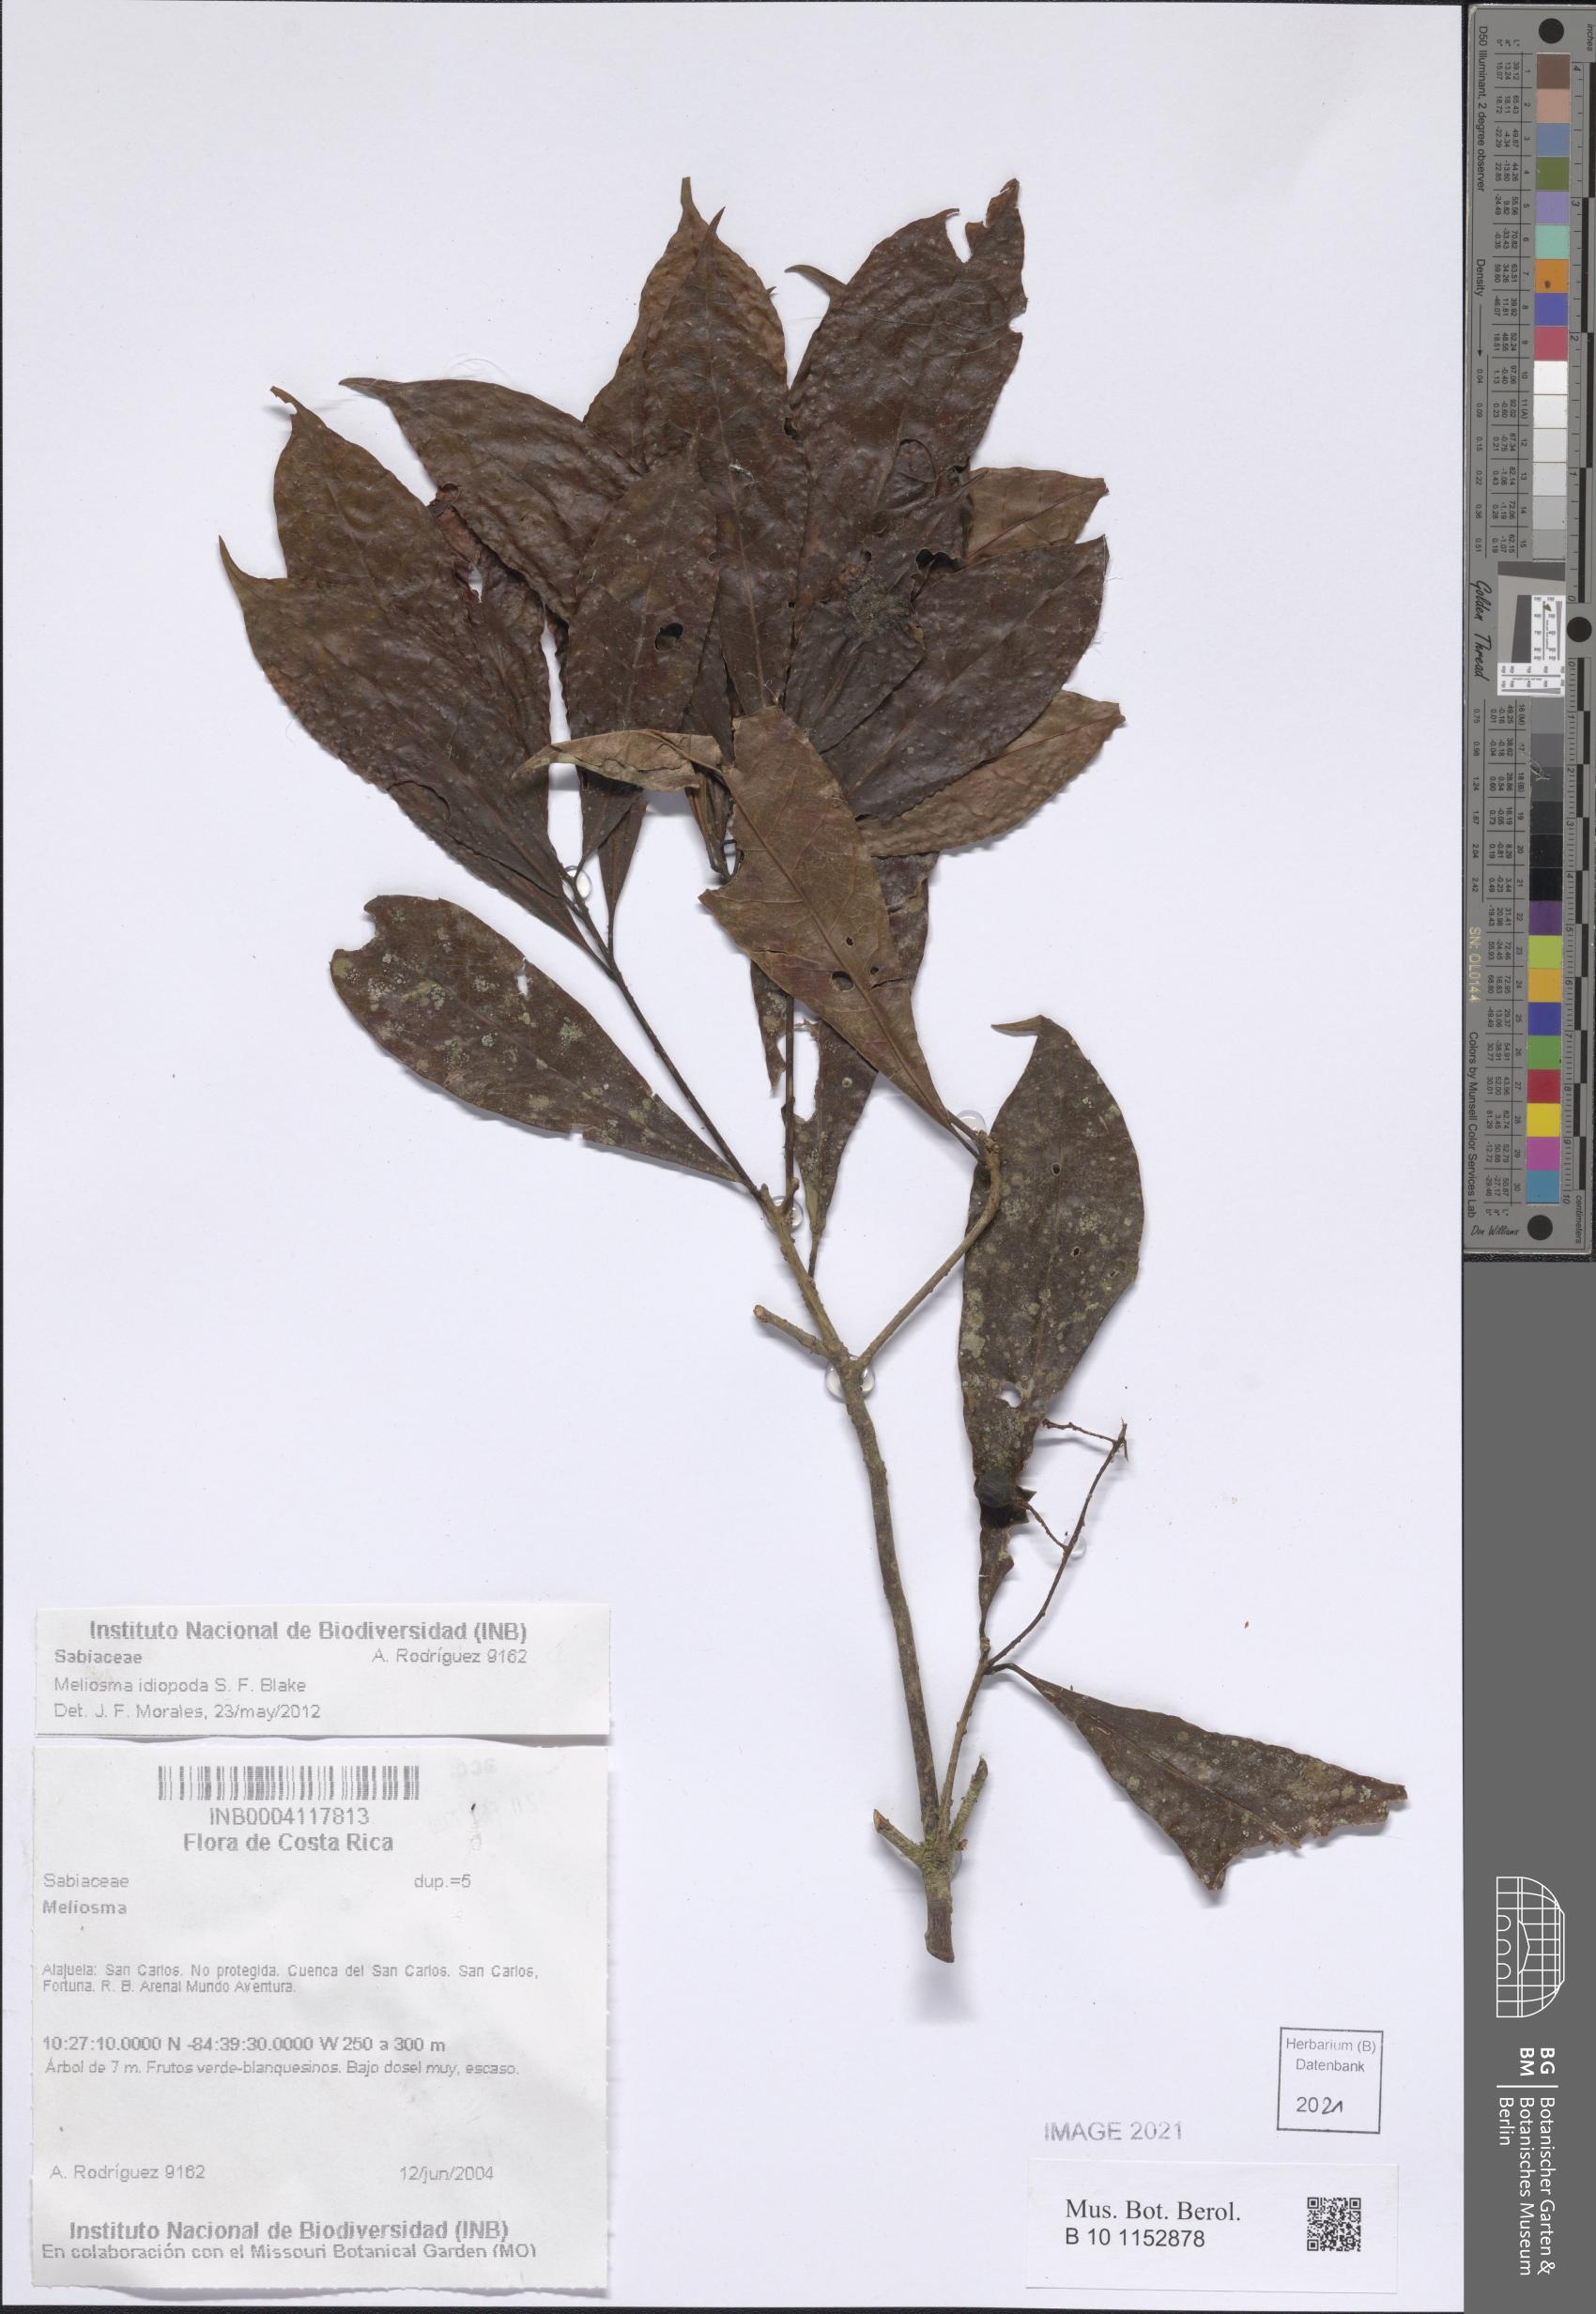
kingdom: Plantae
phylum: Tracheophyta
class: Magnoliopsida
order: Proteales
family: Sabiaceae
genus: Meliosma
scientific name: Meliosma idiopoda
